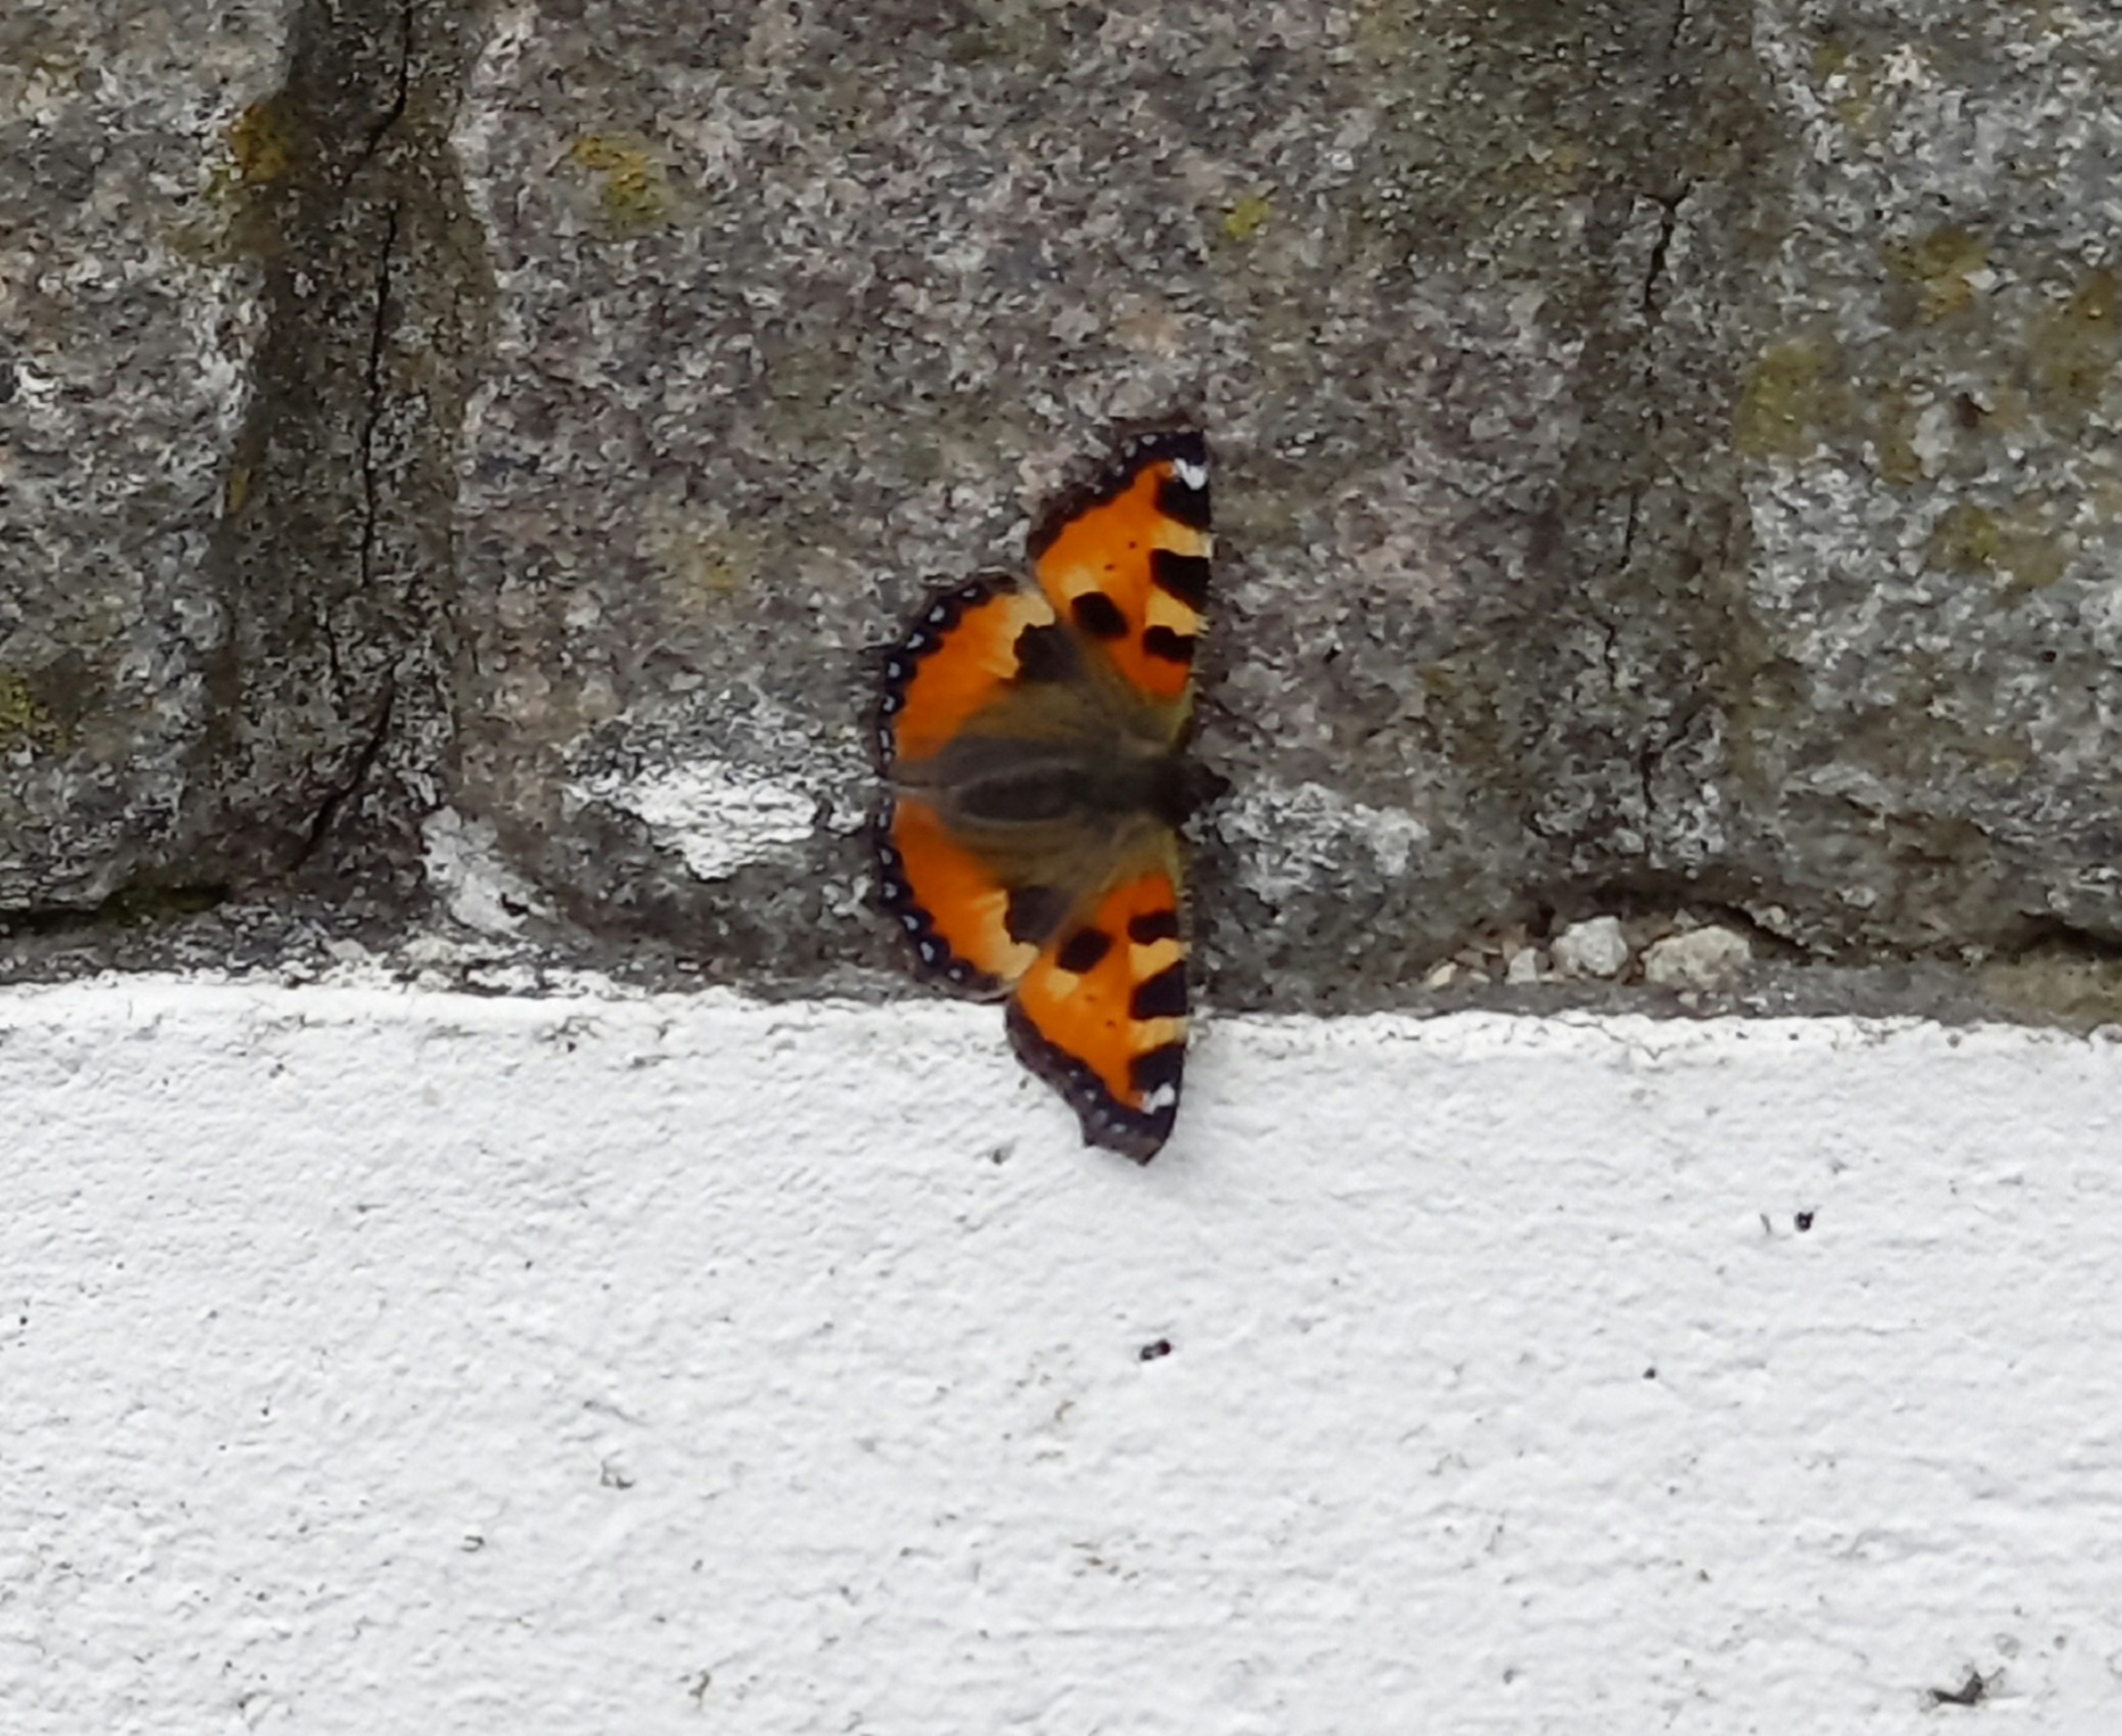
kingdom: Animalia
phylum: Arthropoda
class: Insecta
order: Lepidoptera
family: Nymphalidae
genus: Aglais
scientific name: Aglais urticae
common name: Nældens takvinge
